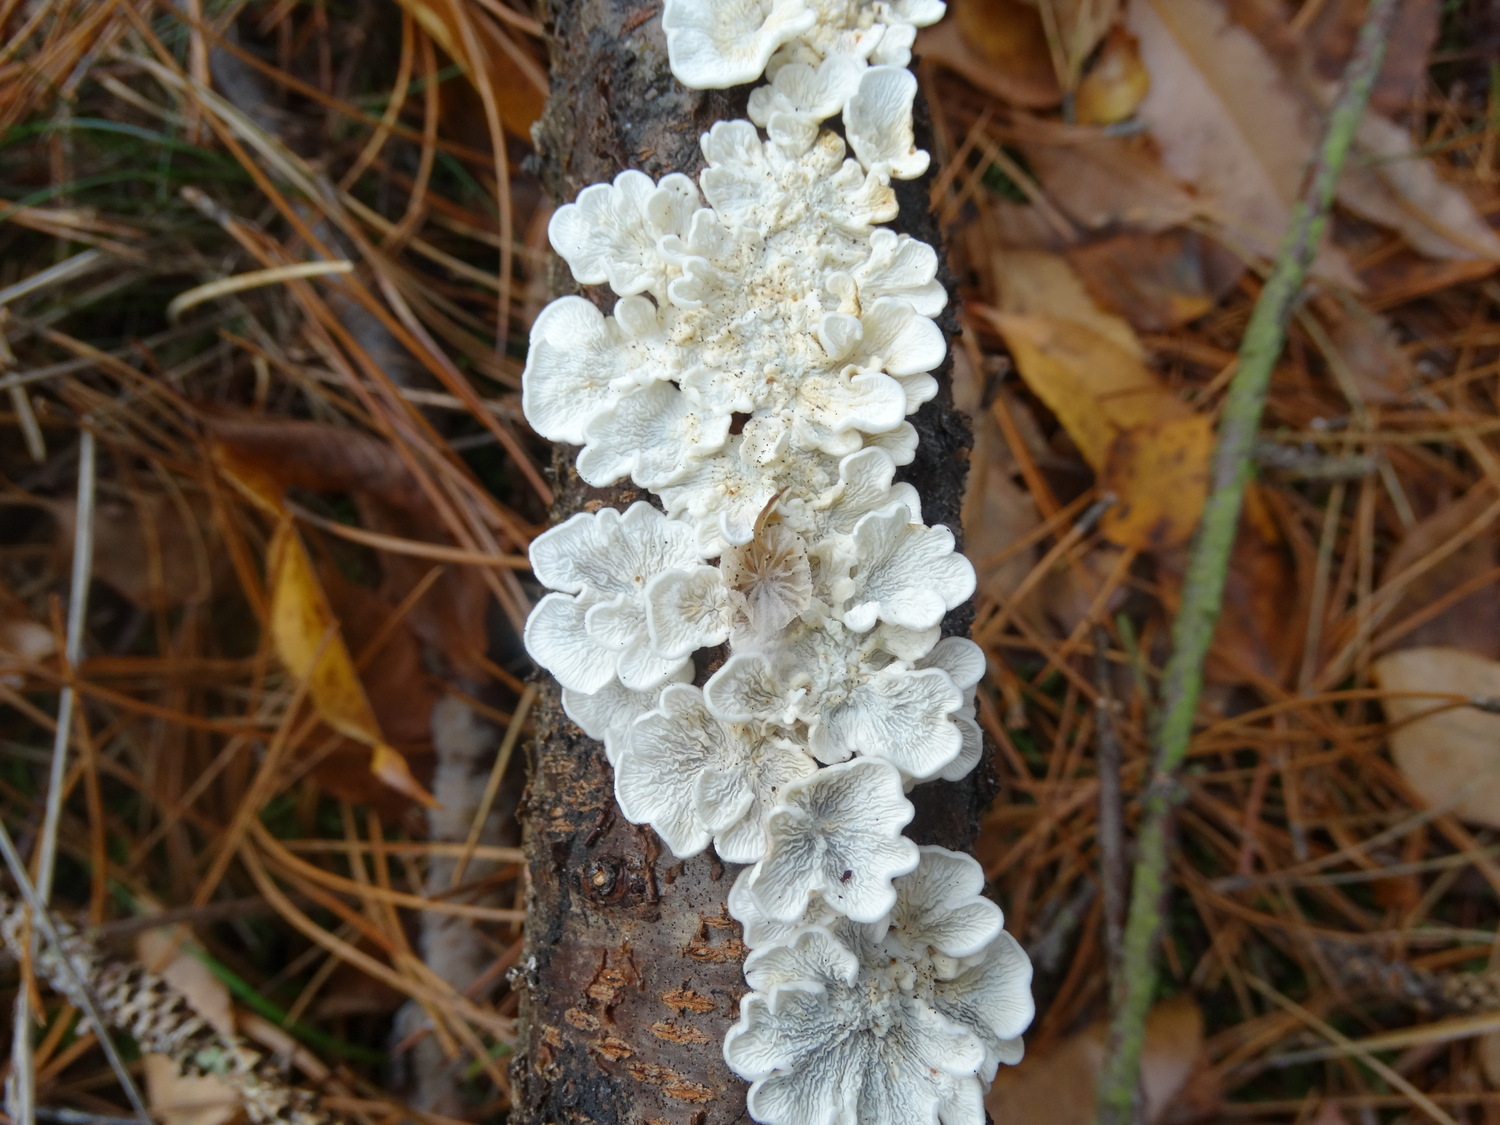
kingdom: Fungi
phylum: Basidiomycota
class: Agaricomycetes
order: Amylocorticiales
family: Amylocorticiaceae
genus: Plicaturopsis
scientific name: Plicaturopsis crispa
